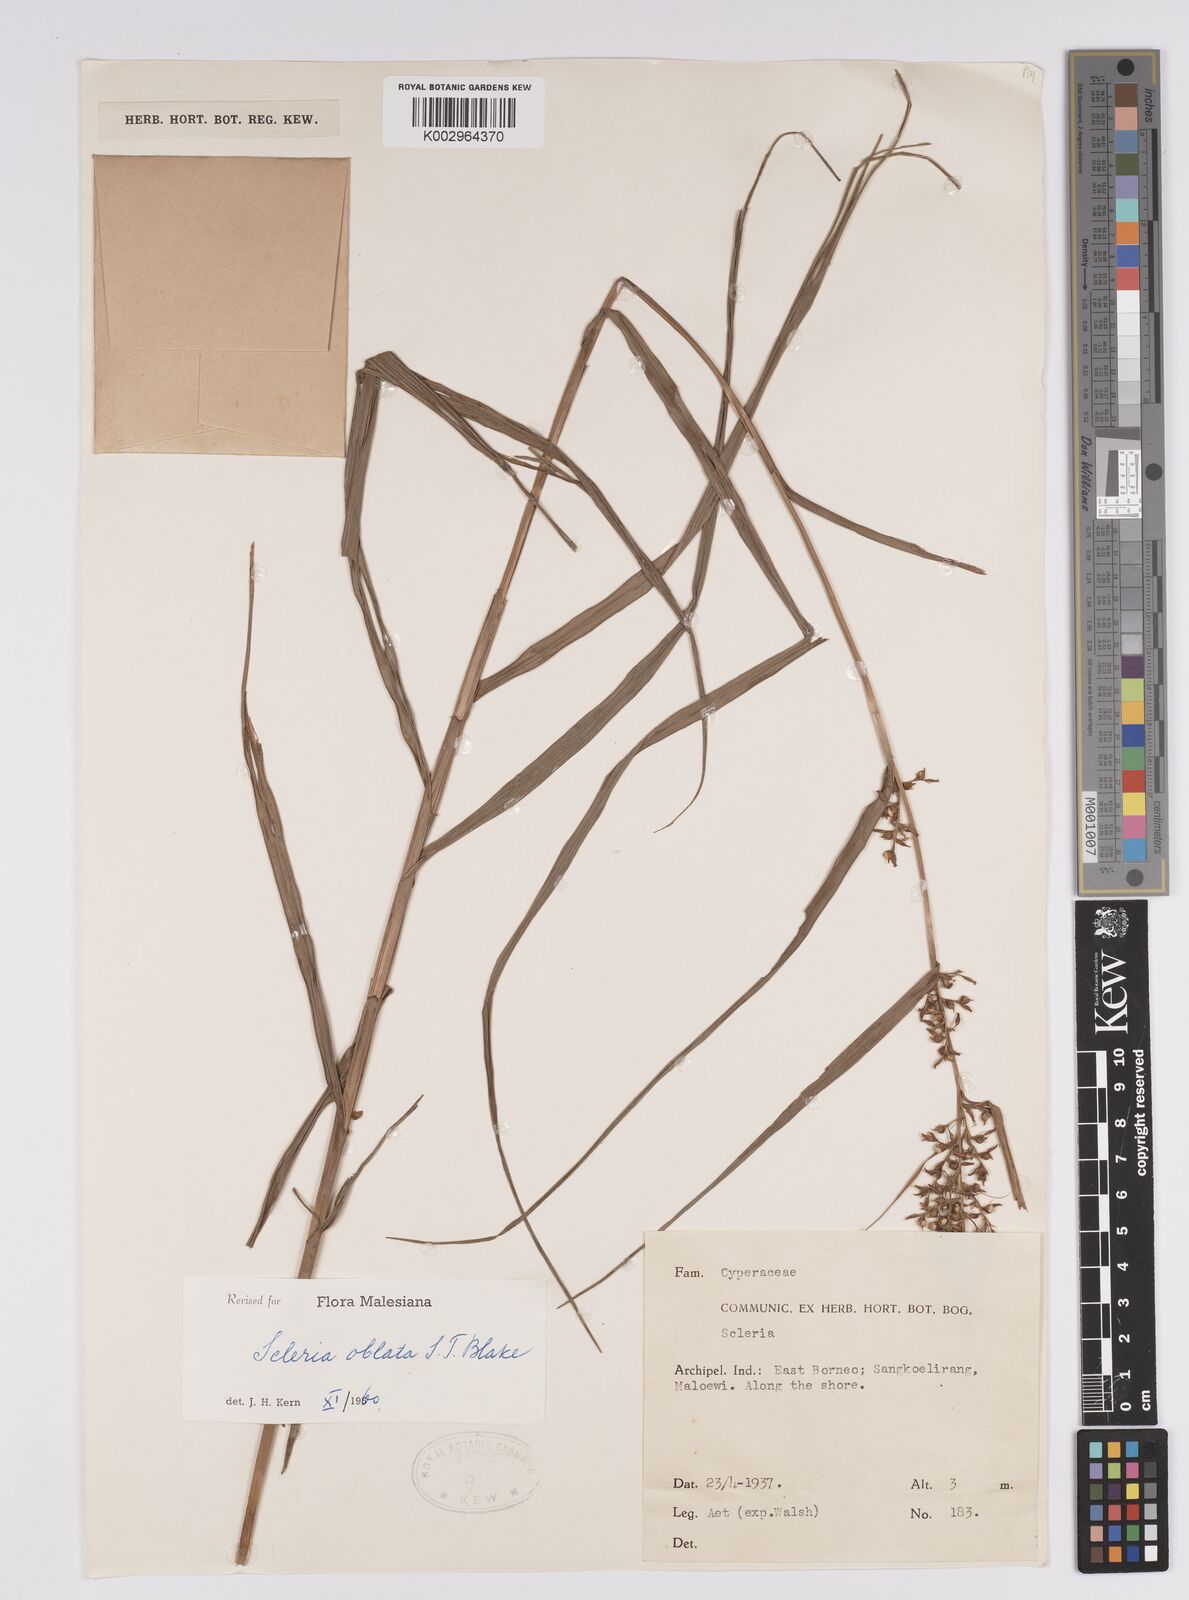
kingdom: Plantae
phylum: Tracheophyta
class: Liliopsida
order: Poales
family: Cyperaceae
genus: Scleria
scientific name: Scleria oblata
